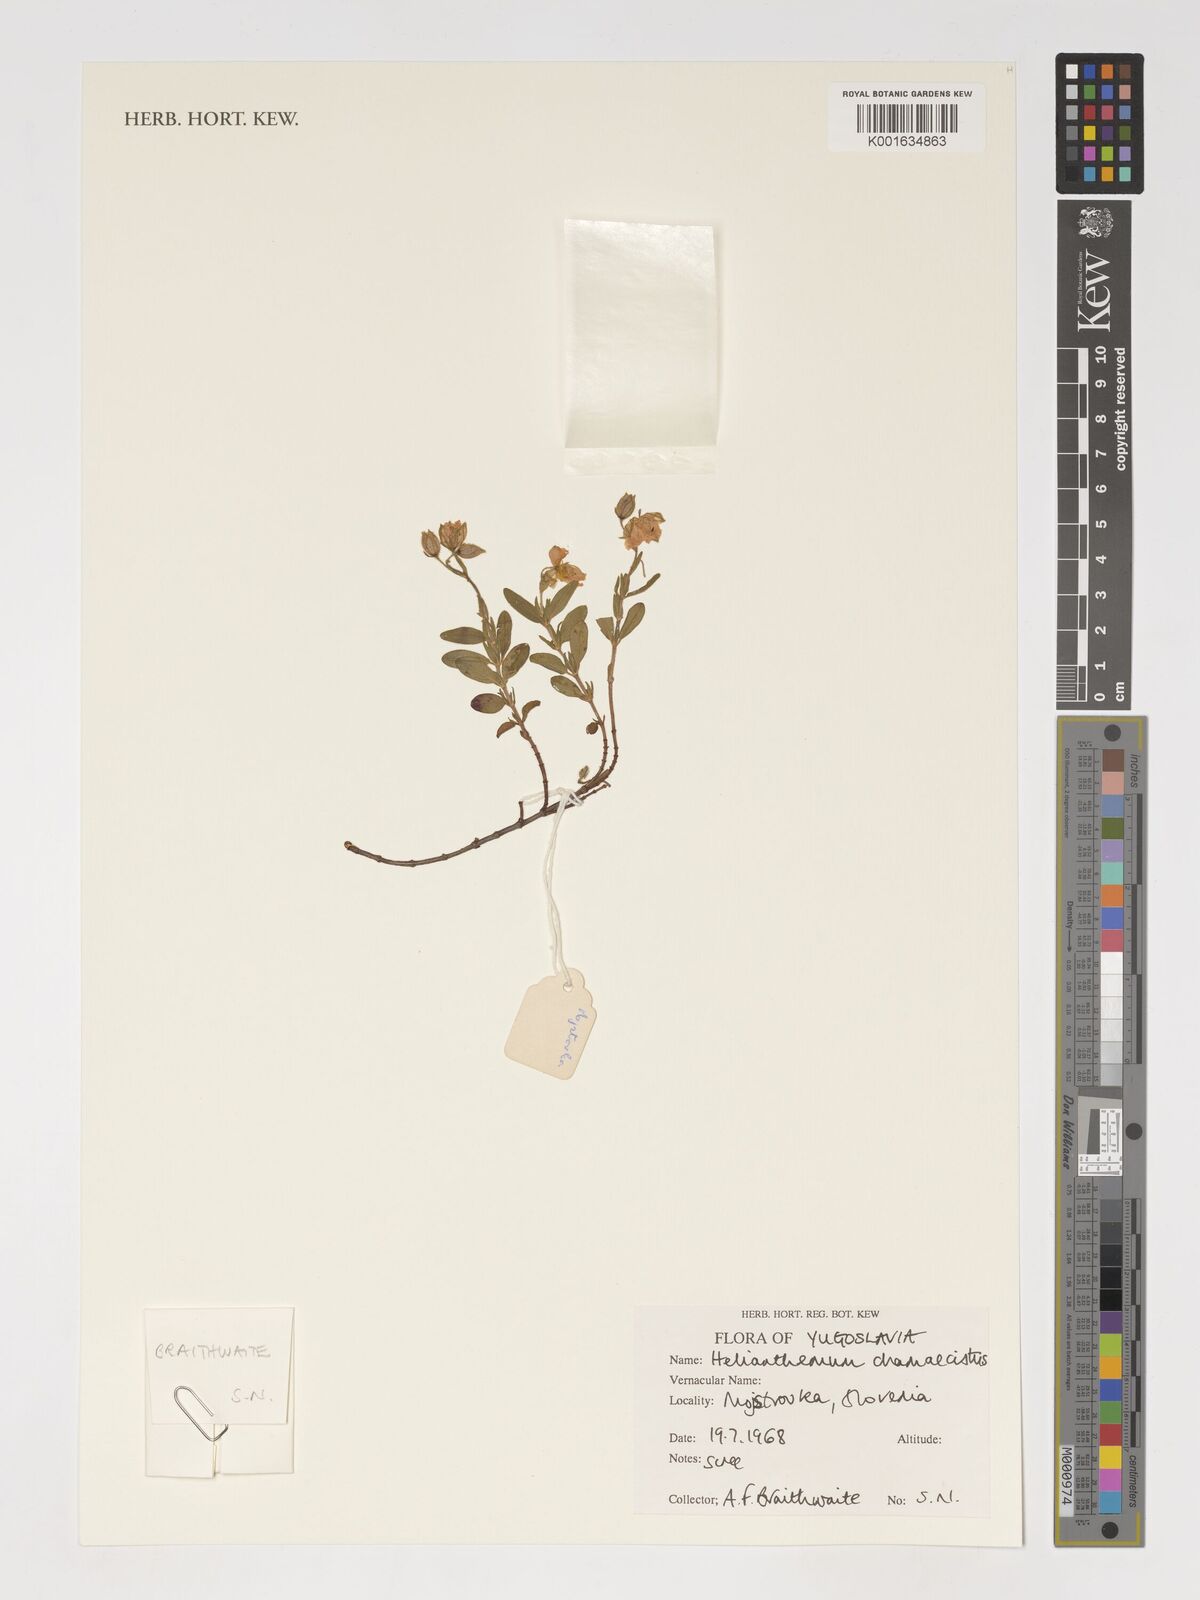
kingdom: Plantae
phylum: Tracheophyta
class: Magnoliopsida
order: Malvales
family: Cistaceae
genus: Helianthemum
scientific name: Helianthemum nummularium
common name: Common rock-rose
